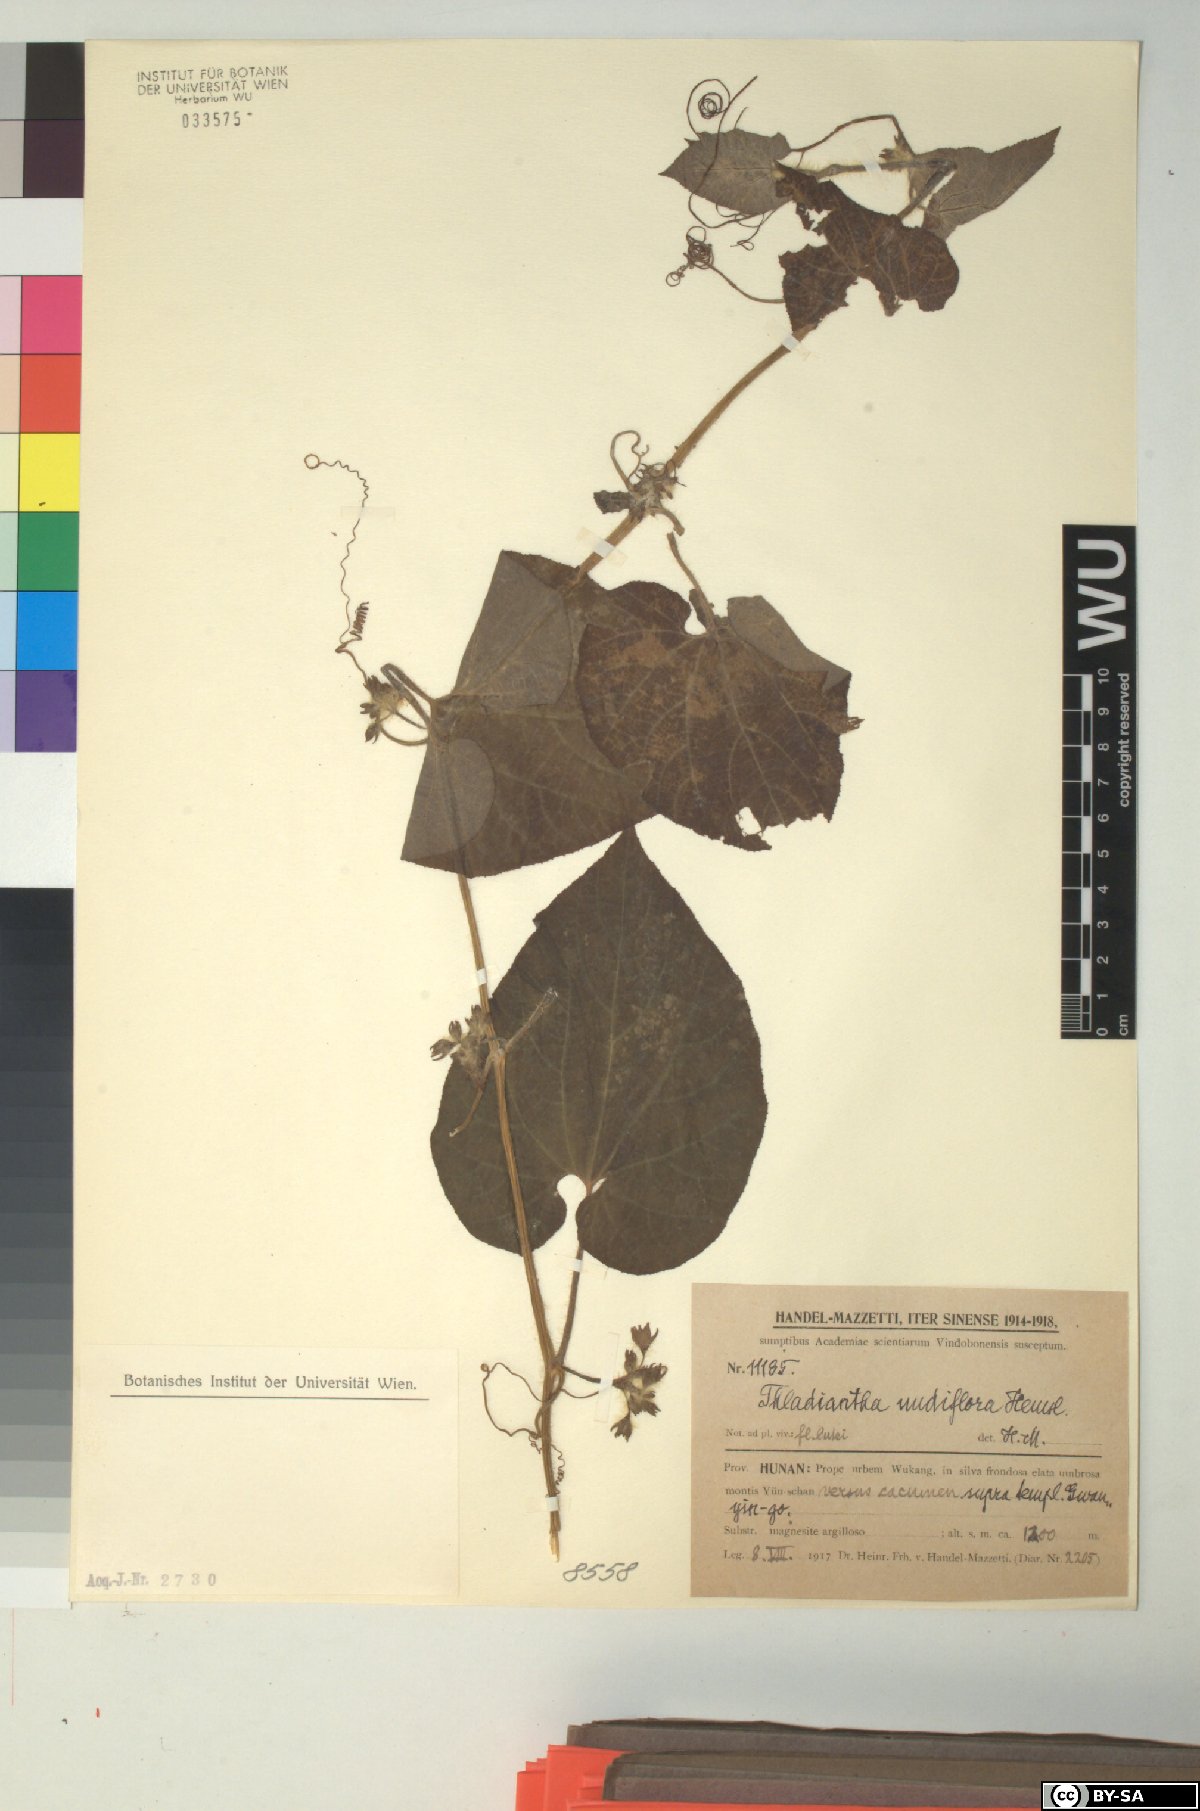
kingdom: Plantae
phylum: Tracheophyta
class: Magnoliopsida
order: Cucurbitales
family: Cucurbitaceae
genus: Thladiantha
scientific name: Thladiantha nudiflora
